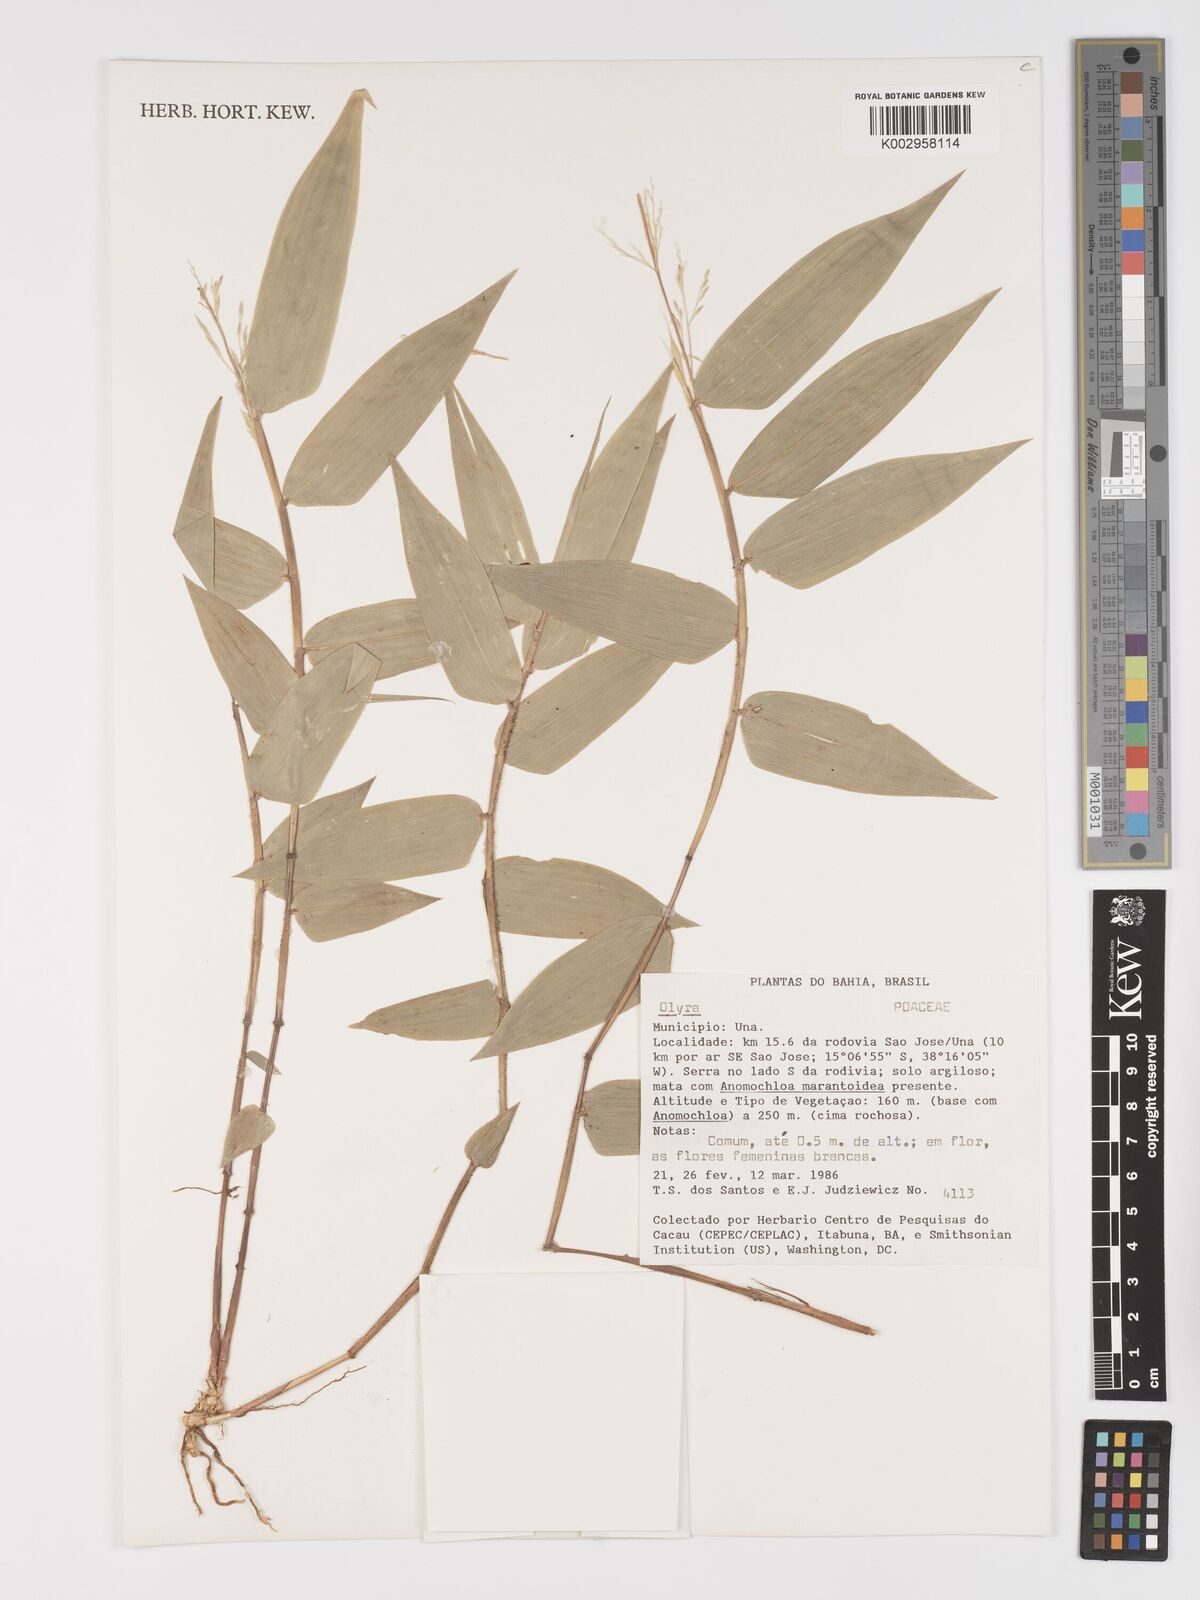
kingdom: Plantae
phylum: Tracheophyta
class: Liliopsida
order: Poales
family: Poaceae
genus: Olyra
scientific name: Olyra
